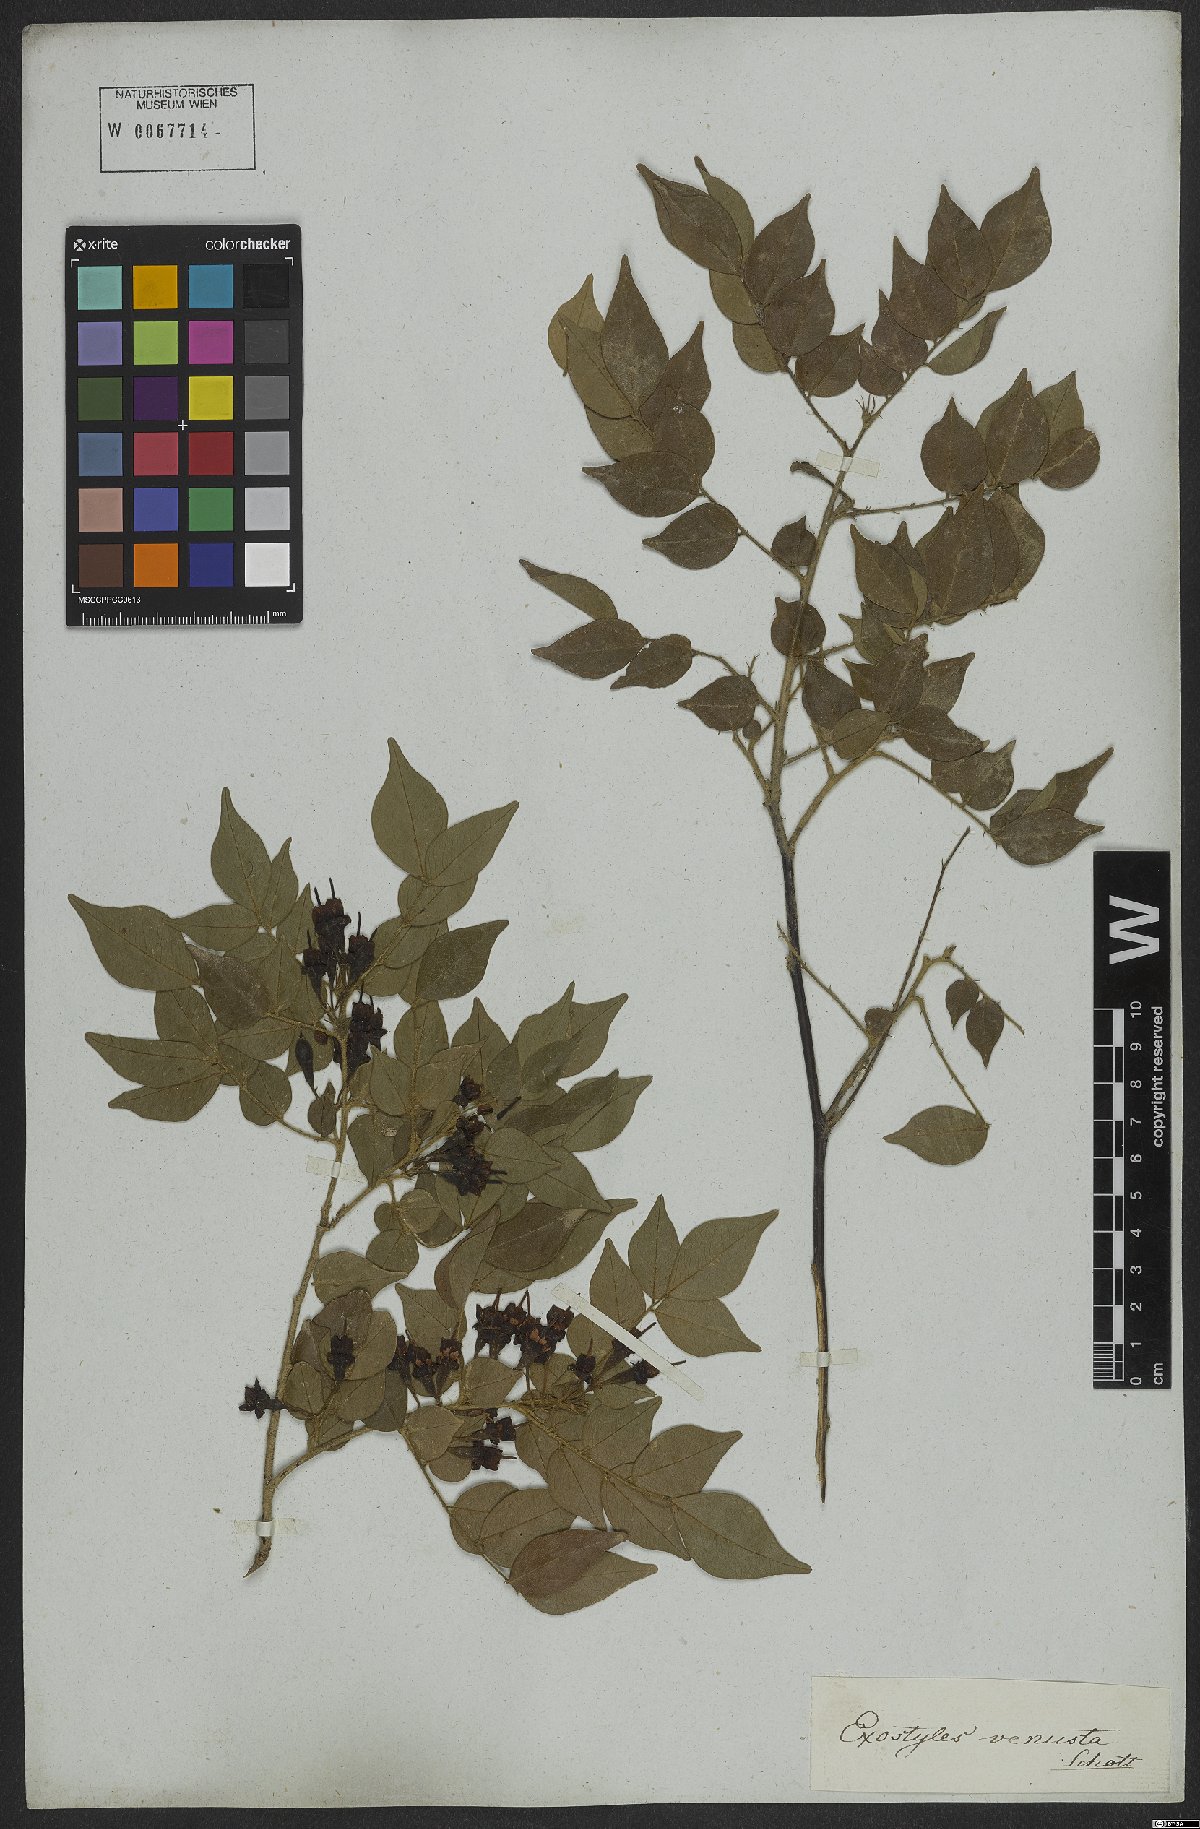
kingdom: Plantae
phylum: Tracheophyta
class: Magnoliopsida
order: Fabales
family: Fabaceae
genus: Exostyles
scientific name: Exostyles venusta
